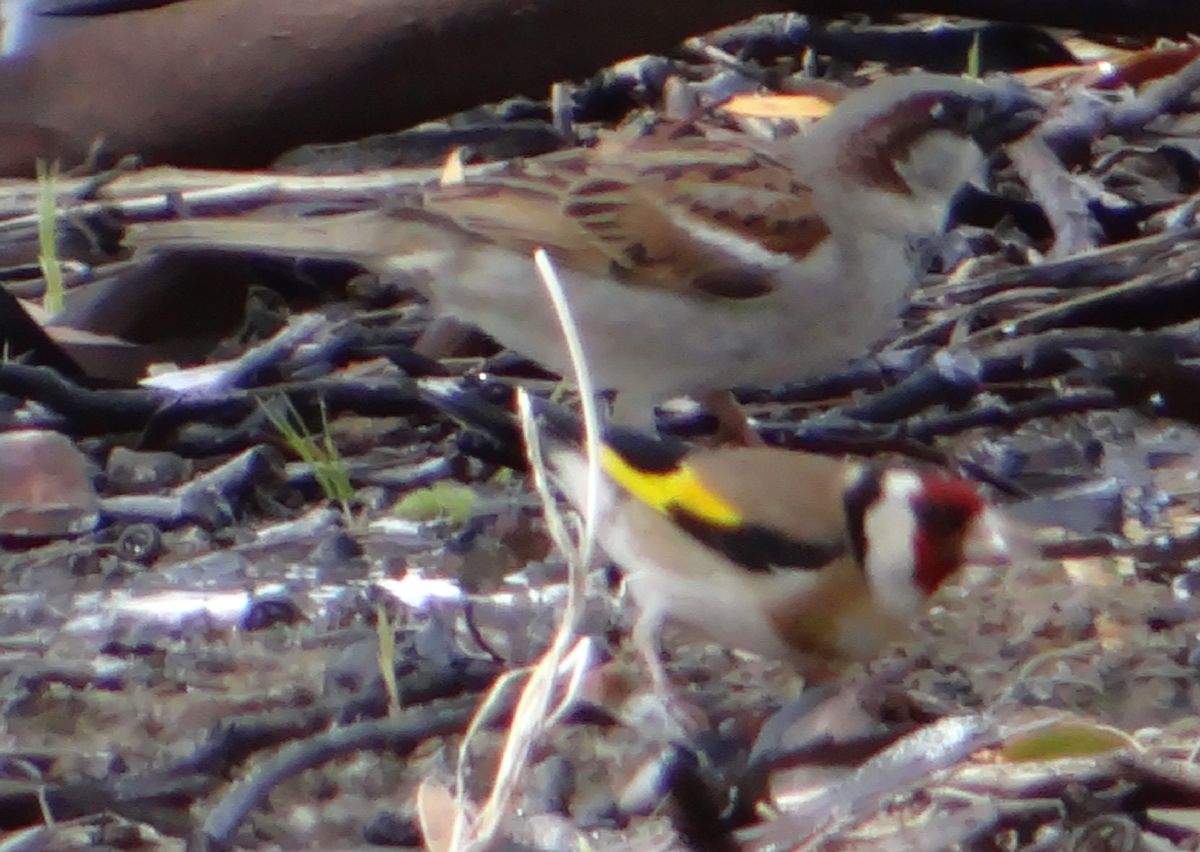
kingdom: Animalia
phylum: Chordata
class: Aves
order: Passeriformes
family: Fringillidae
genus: Carduelis
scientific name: Carduelis carduelis
